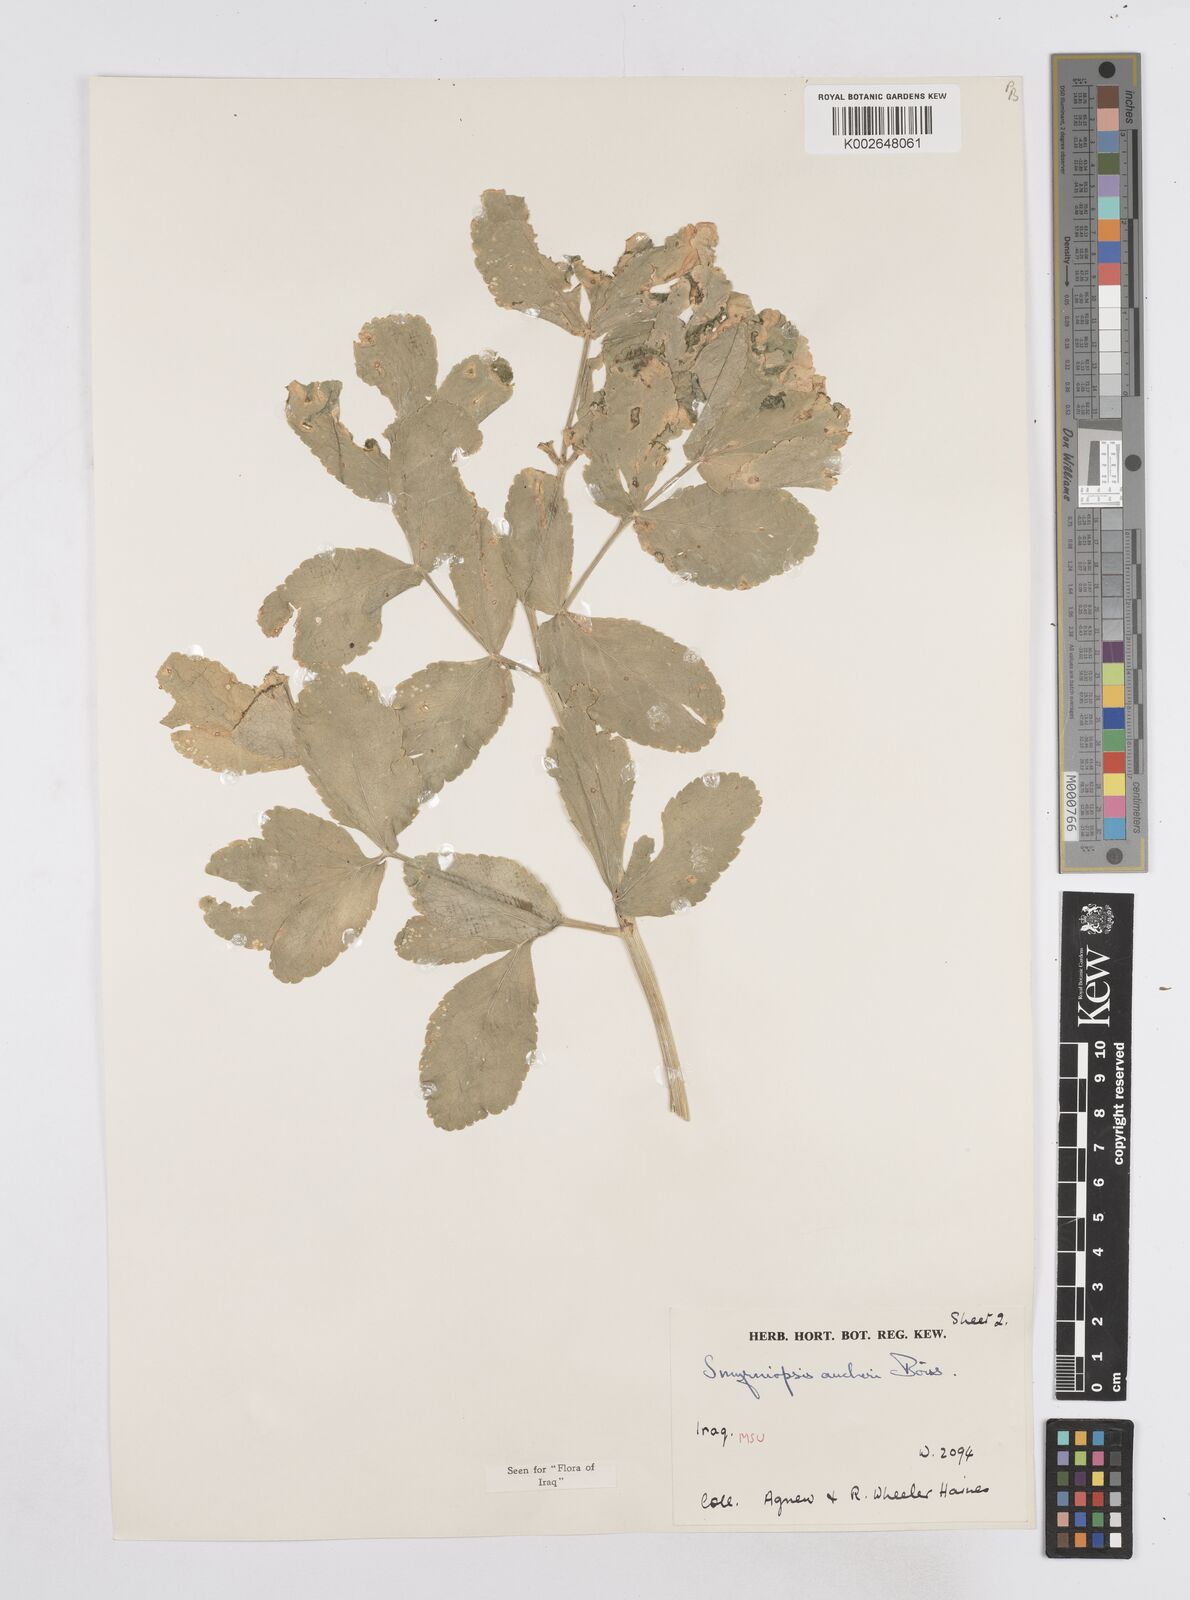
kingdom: Plantae
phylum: Tracheophyta
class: Magnoliopsida
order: Apiales
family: Apiaceae
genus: Smyrniopsis
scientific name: Smyrniopsis aucheri
